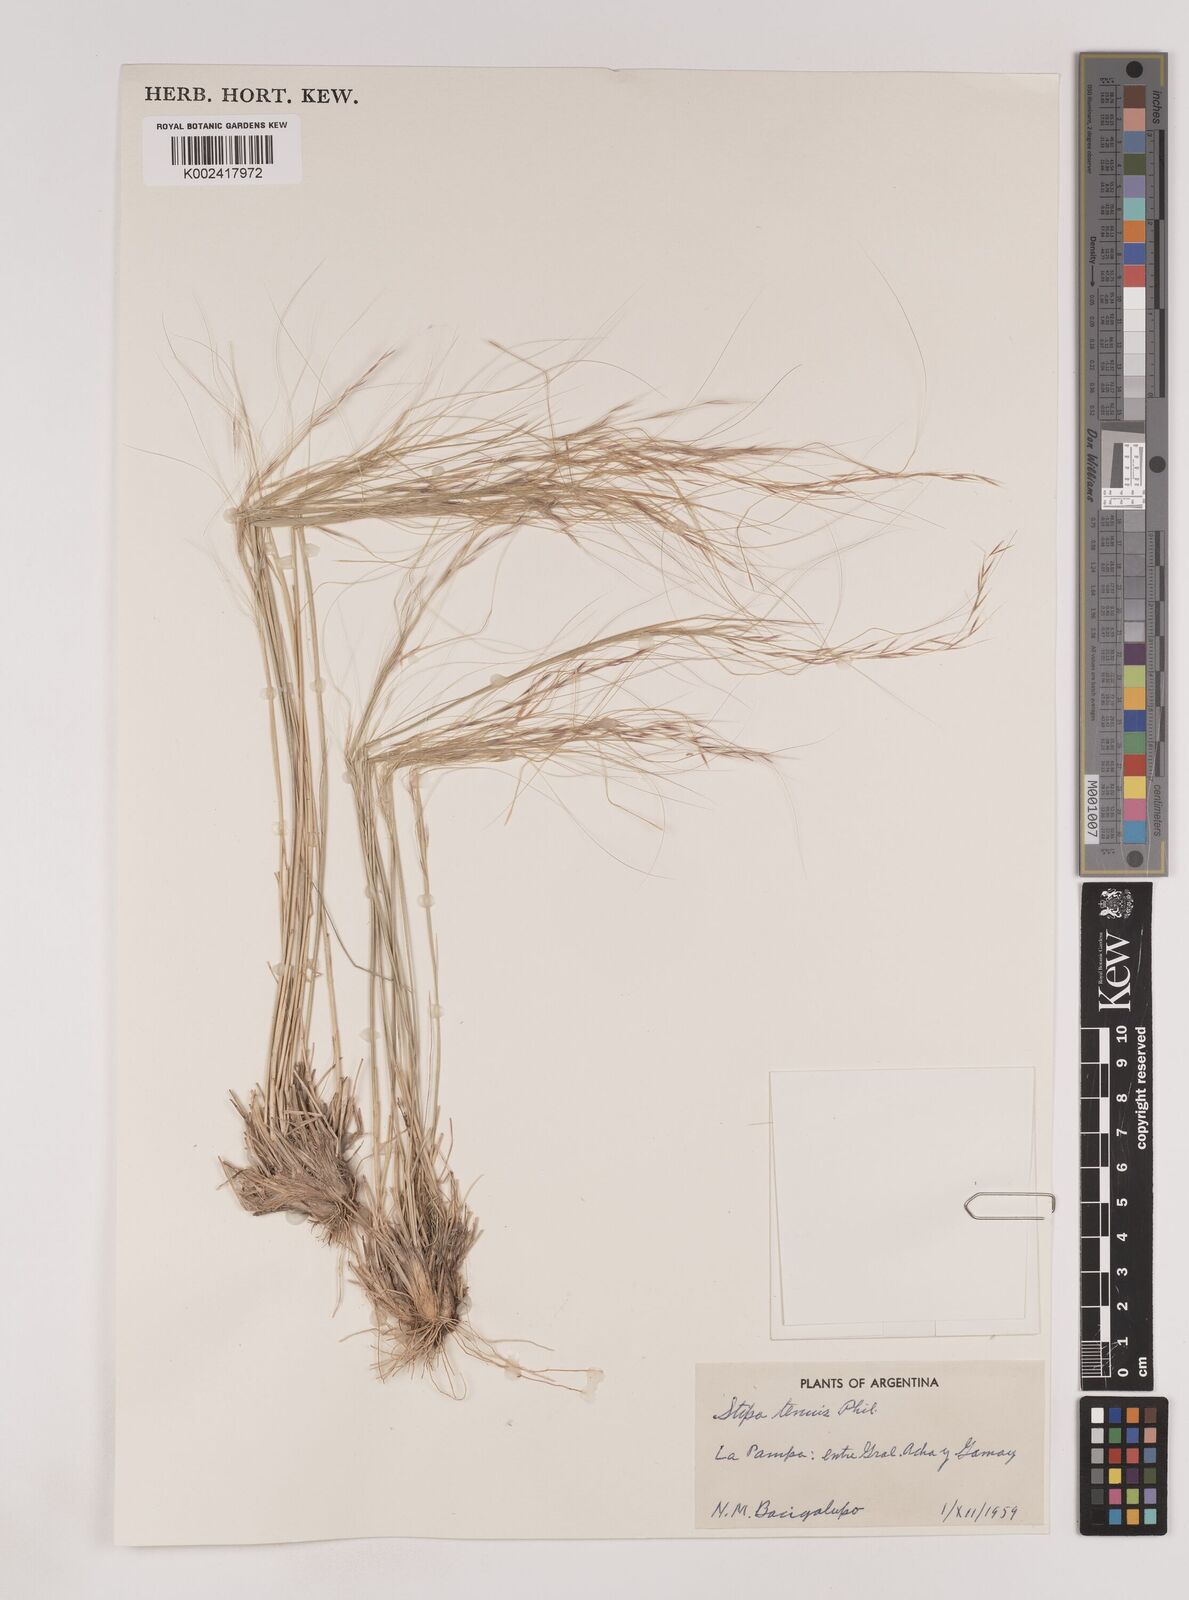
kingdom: Plantae
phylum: Tracheophyta
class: Liliopsida
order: Poales
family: Poaceae
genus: Nassella
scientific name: Nassella tenuis
